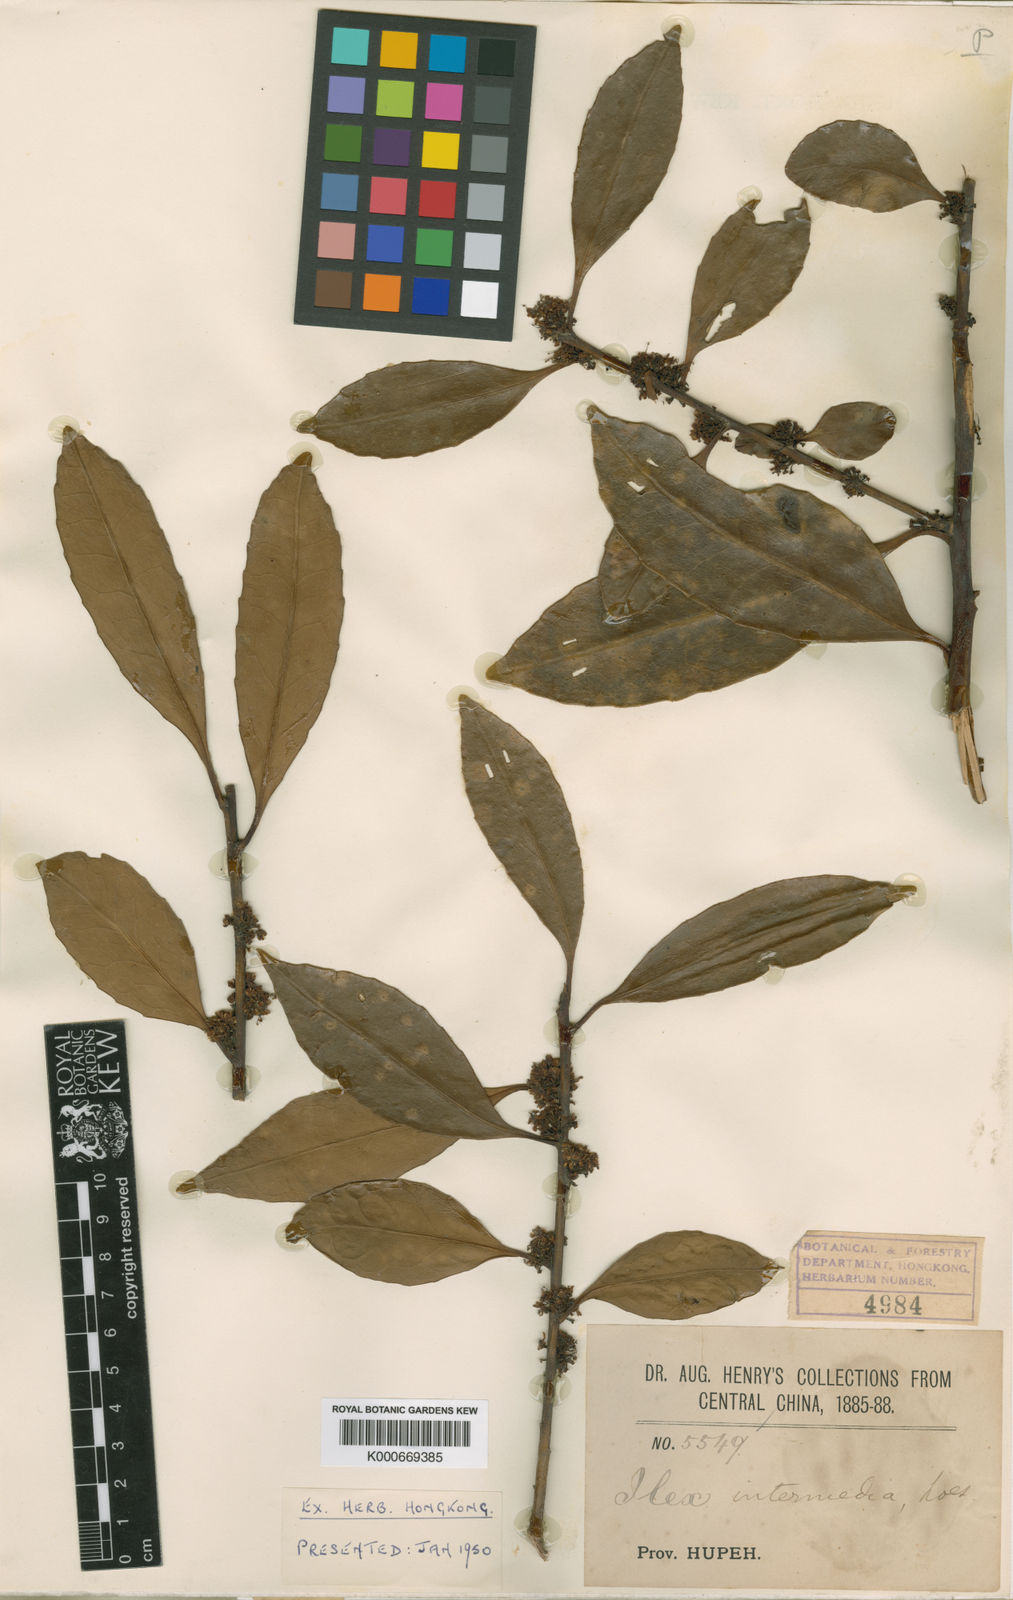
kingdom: Plantae
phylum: Tracheophyta
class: Magnoliopsida
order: Aquifoliales
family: Aquifoliaceae
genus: Ilex
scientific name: Ilex intermedia
